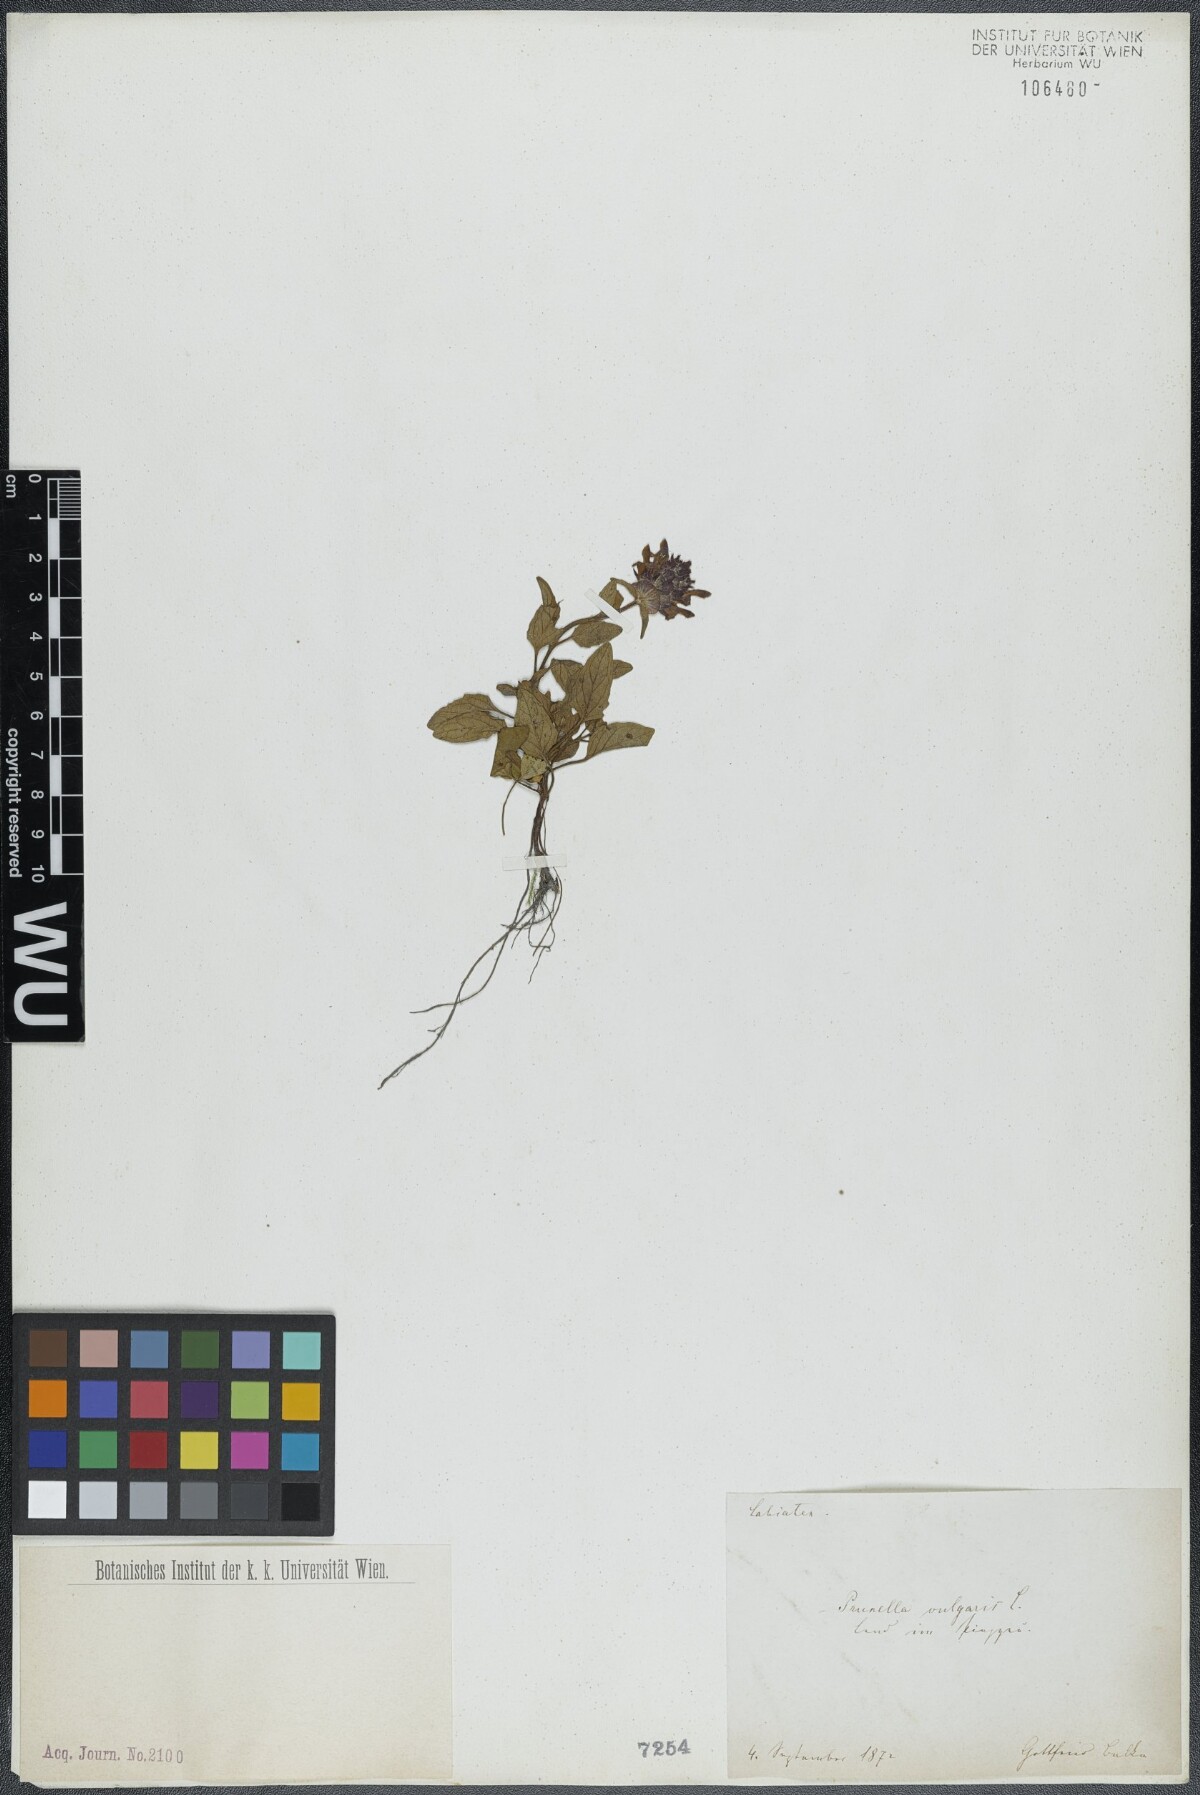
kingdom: Plantae
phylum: Tracheophyta
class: Magnoliopsida
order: Lamiales
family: Lamiaceae
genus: Prunella
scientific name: Prunella vulgaris
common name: Heal-all
